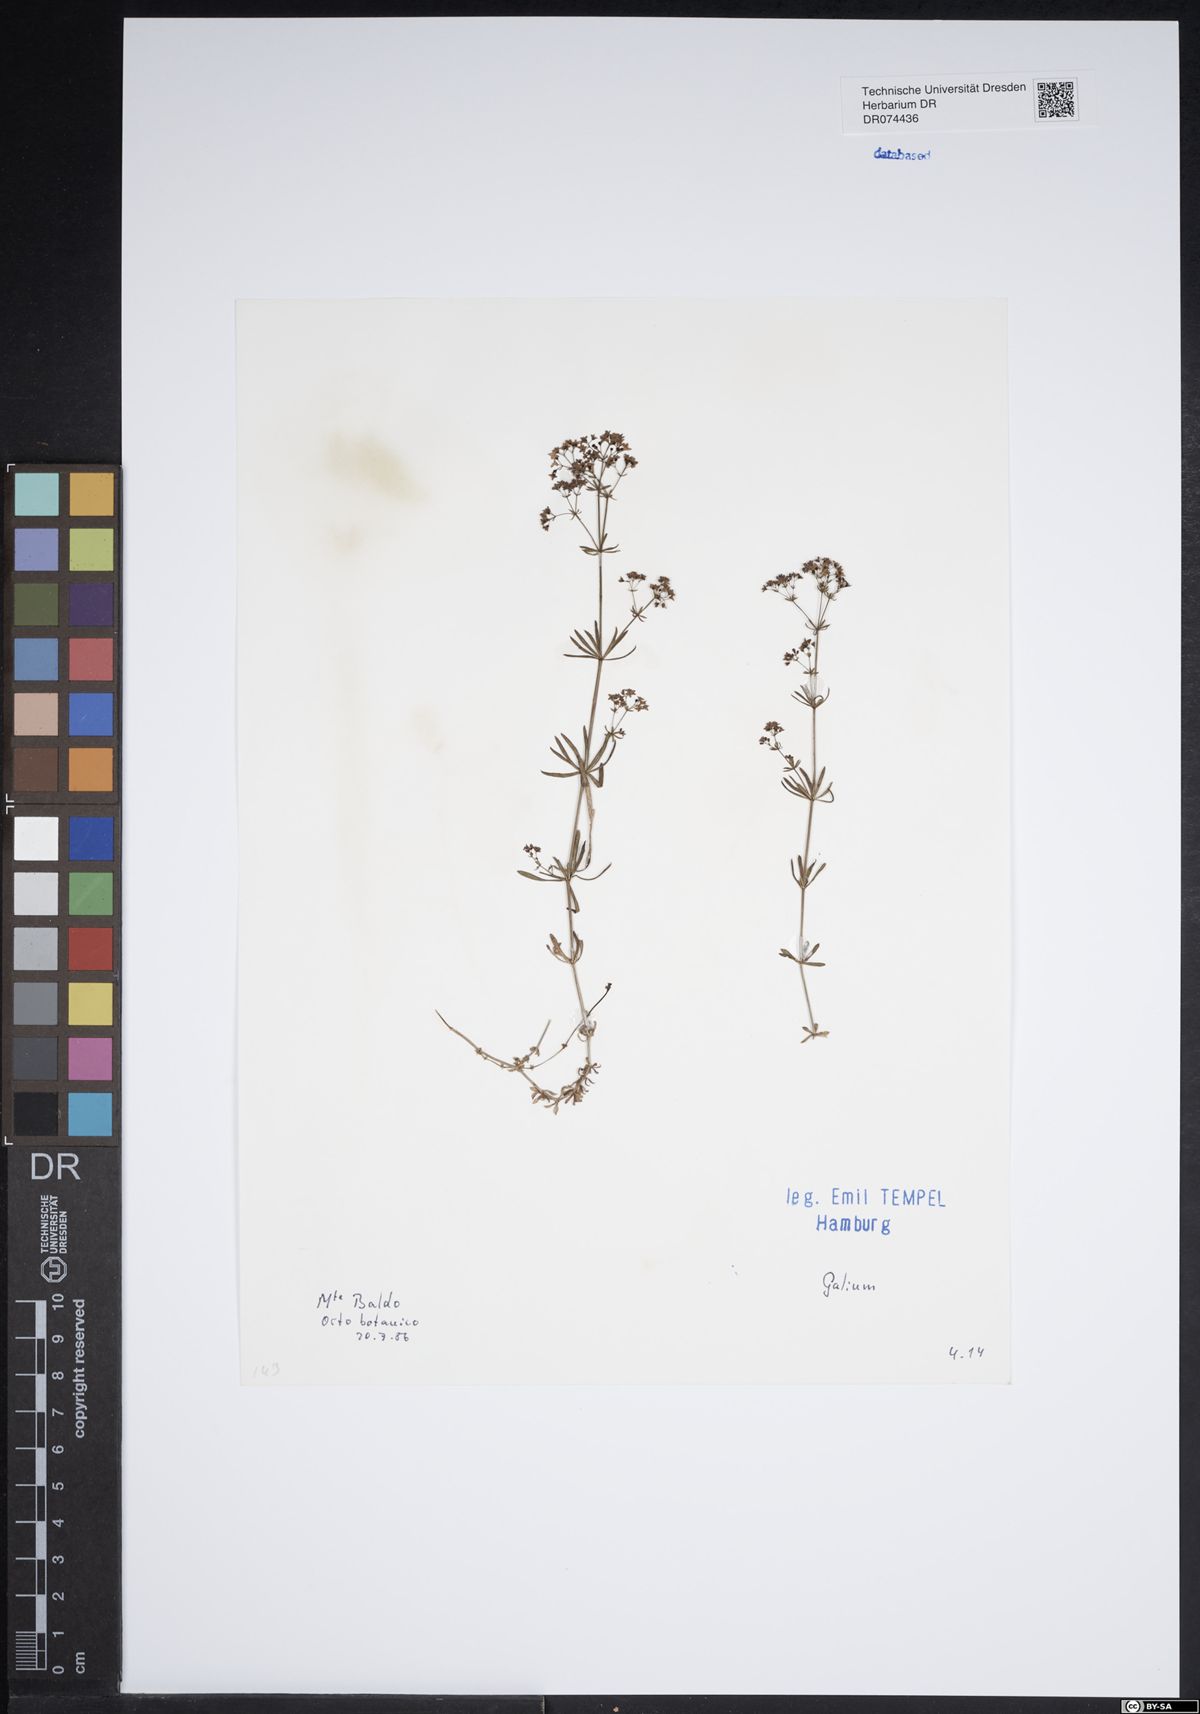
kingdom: Plantae
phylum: Tracheophyta
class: Magnoliopsida
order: Gentianales
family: Rubiaceae
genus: Galium
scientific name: Galium
